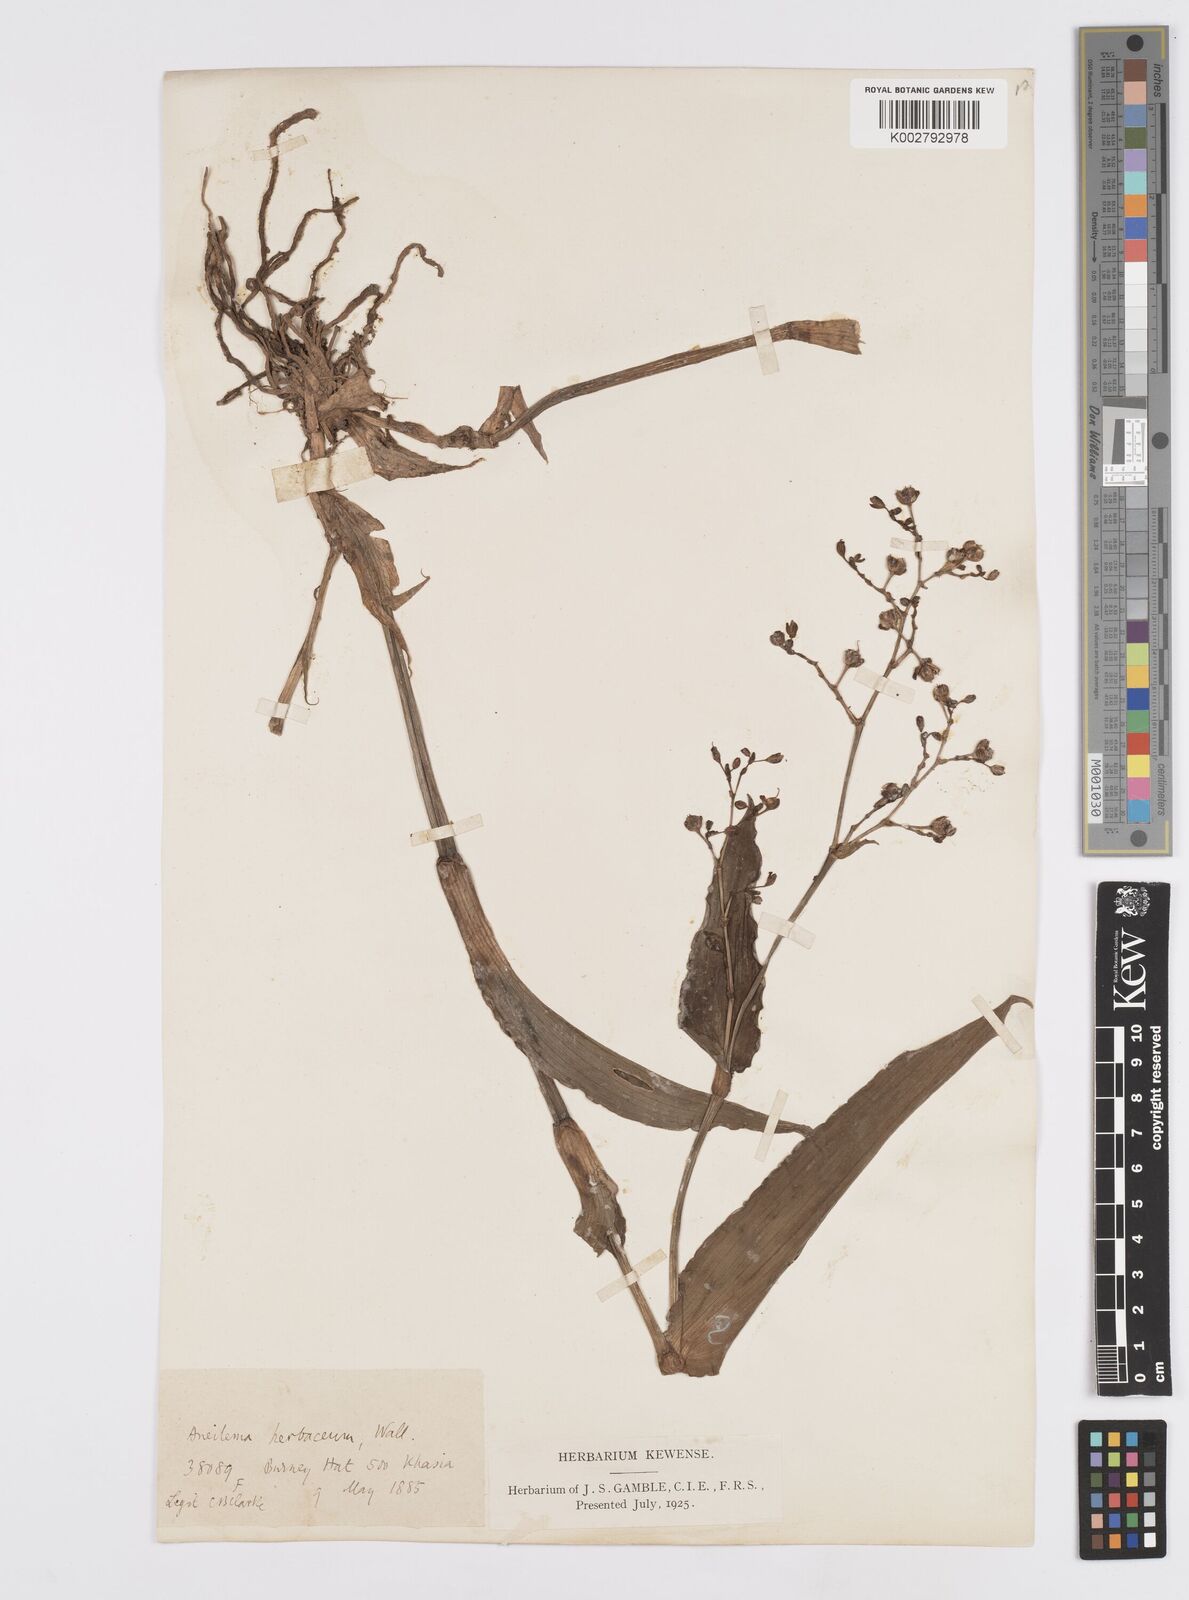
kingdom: Plantae
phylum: Tracheophyta
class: Liliopsida
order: Commelinales
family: Commelinaceae
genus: Murdannia
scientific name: Murdannia
